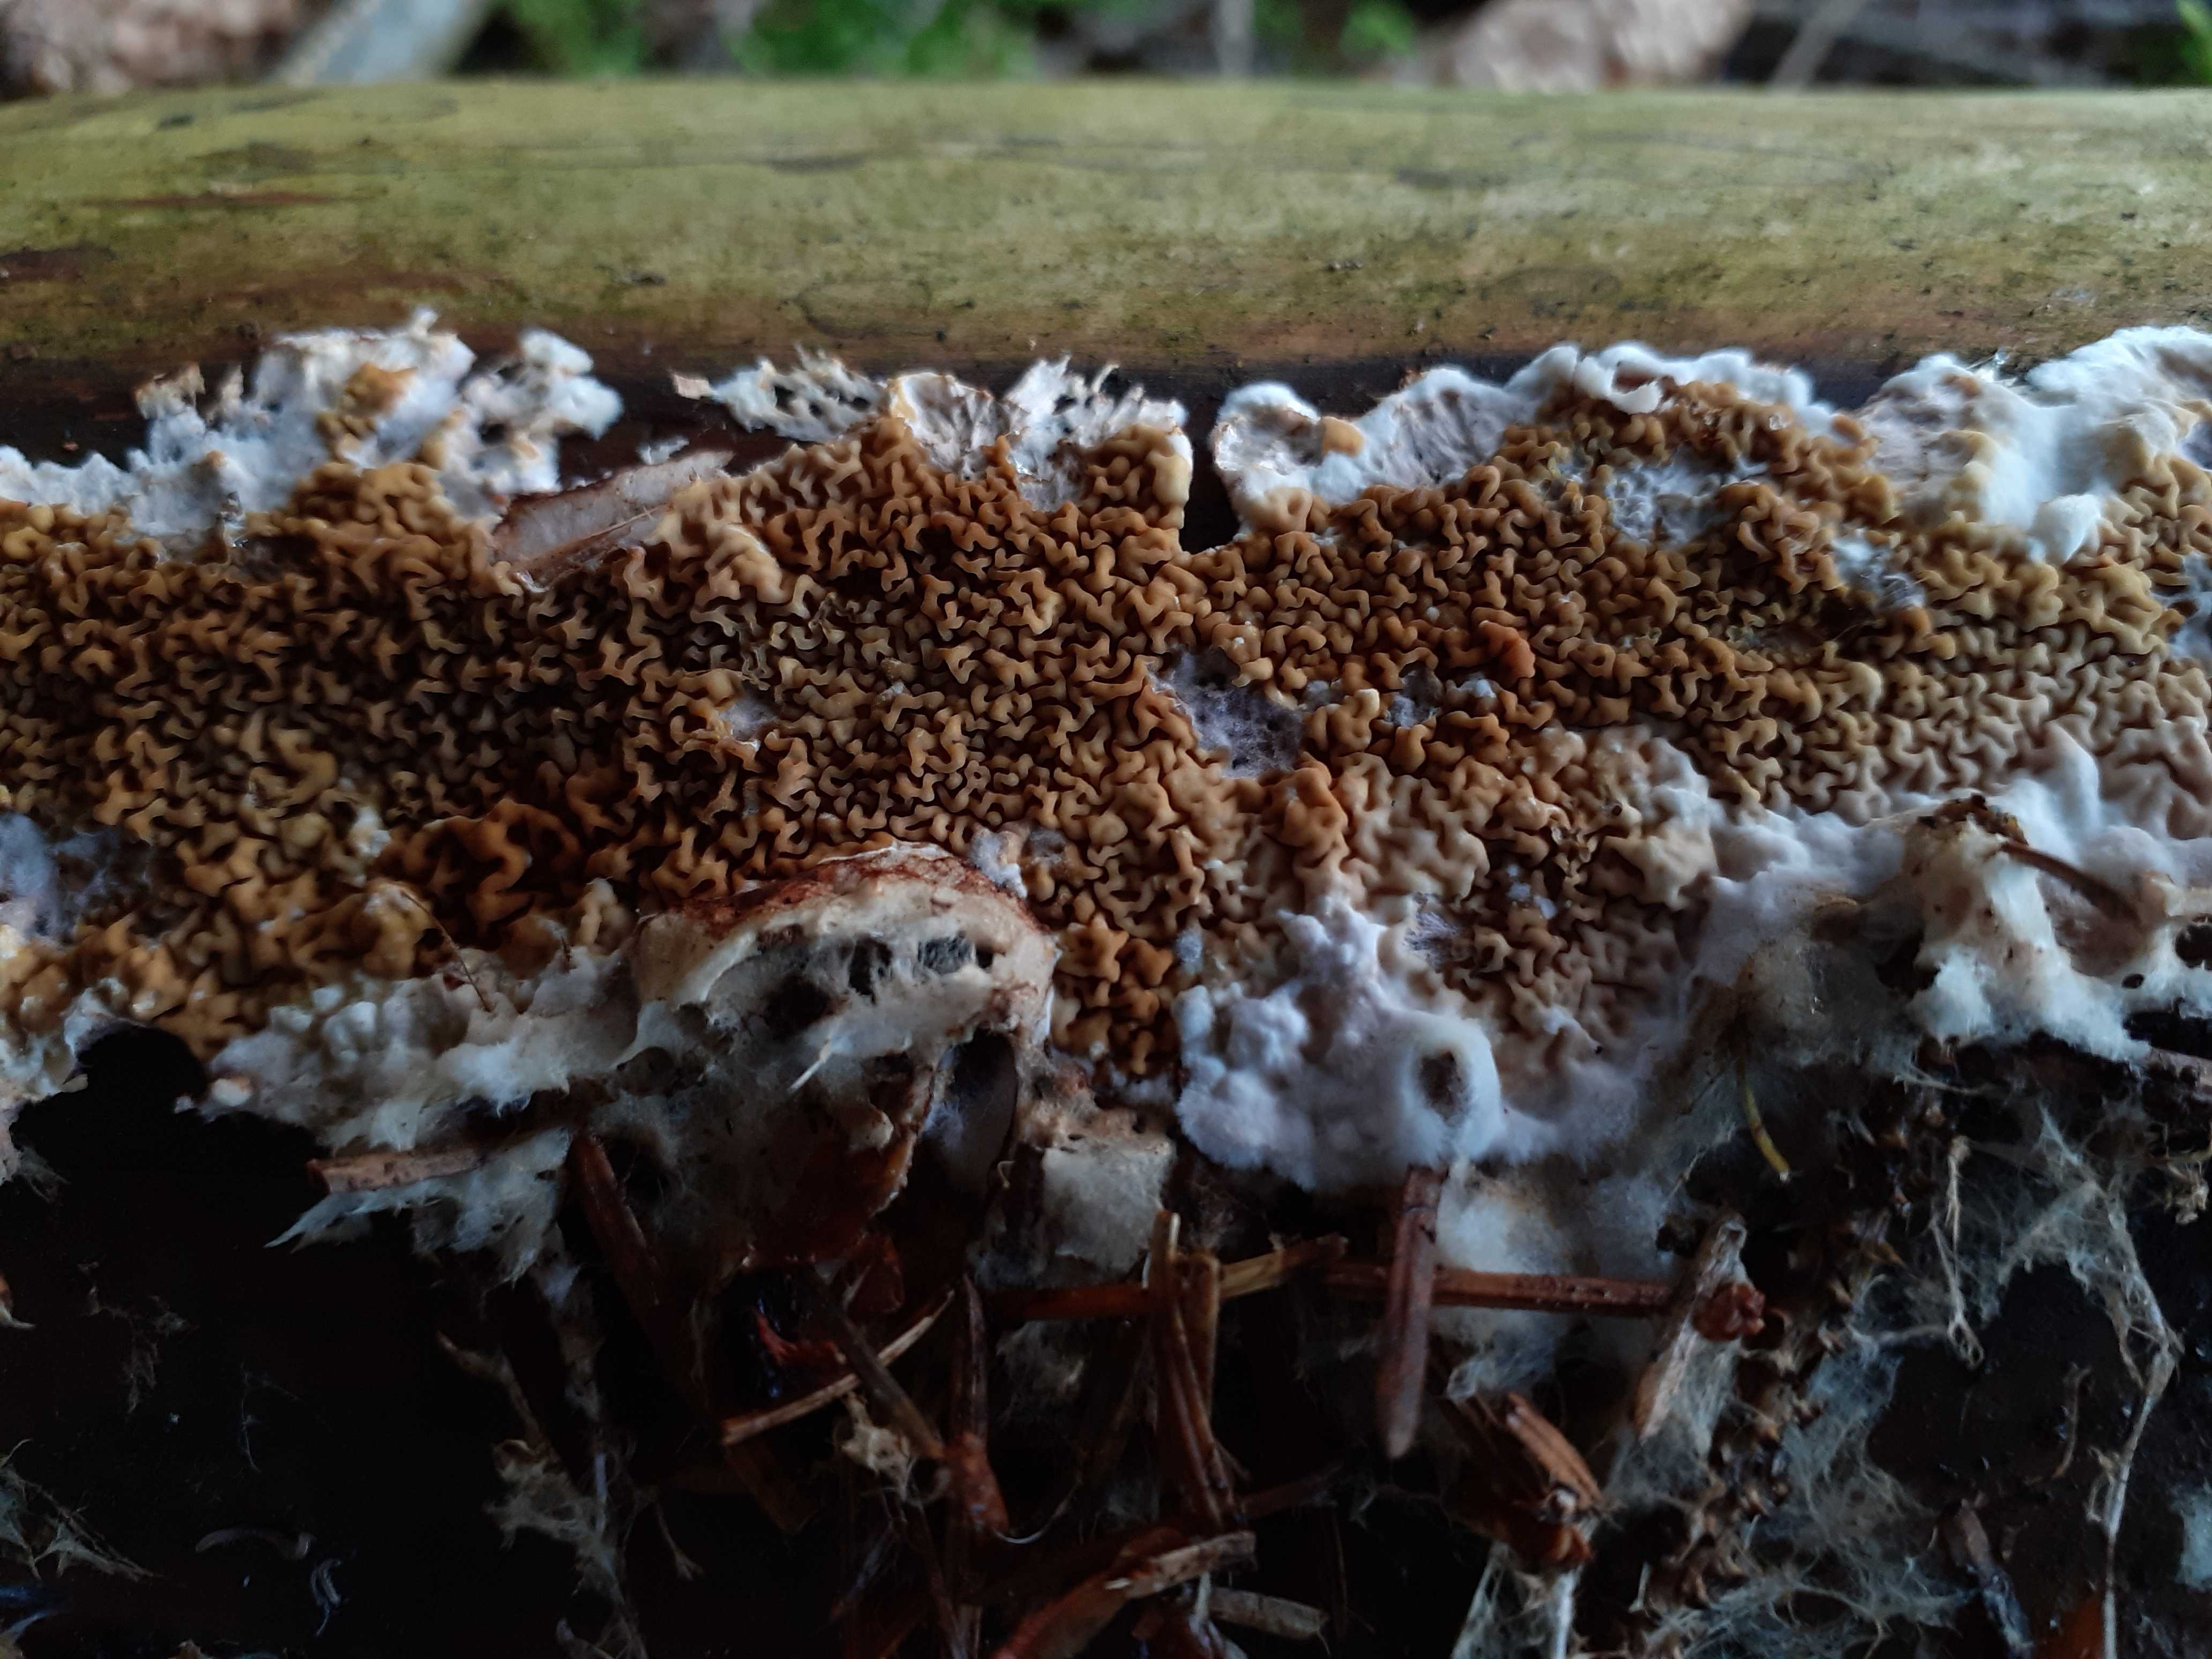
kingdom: Fungi
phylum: Basidiomycota
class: Agaricomycetes
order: Boletales
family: Serpulaceae
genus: Serpula
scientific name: Serpula himantioides
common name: tyndkødet hussvamp
